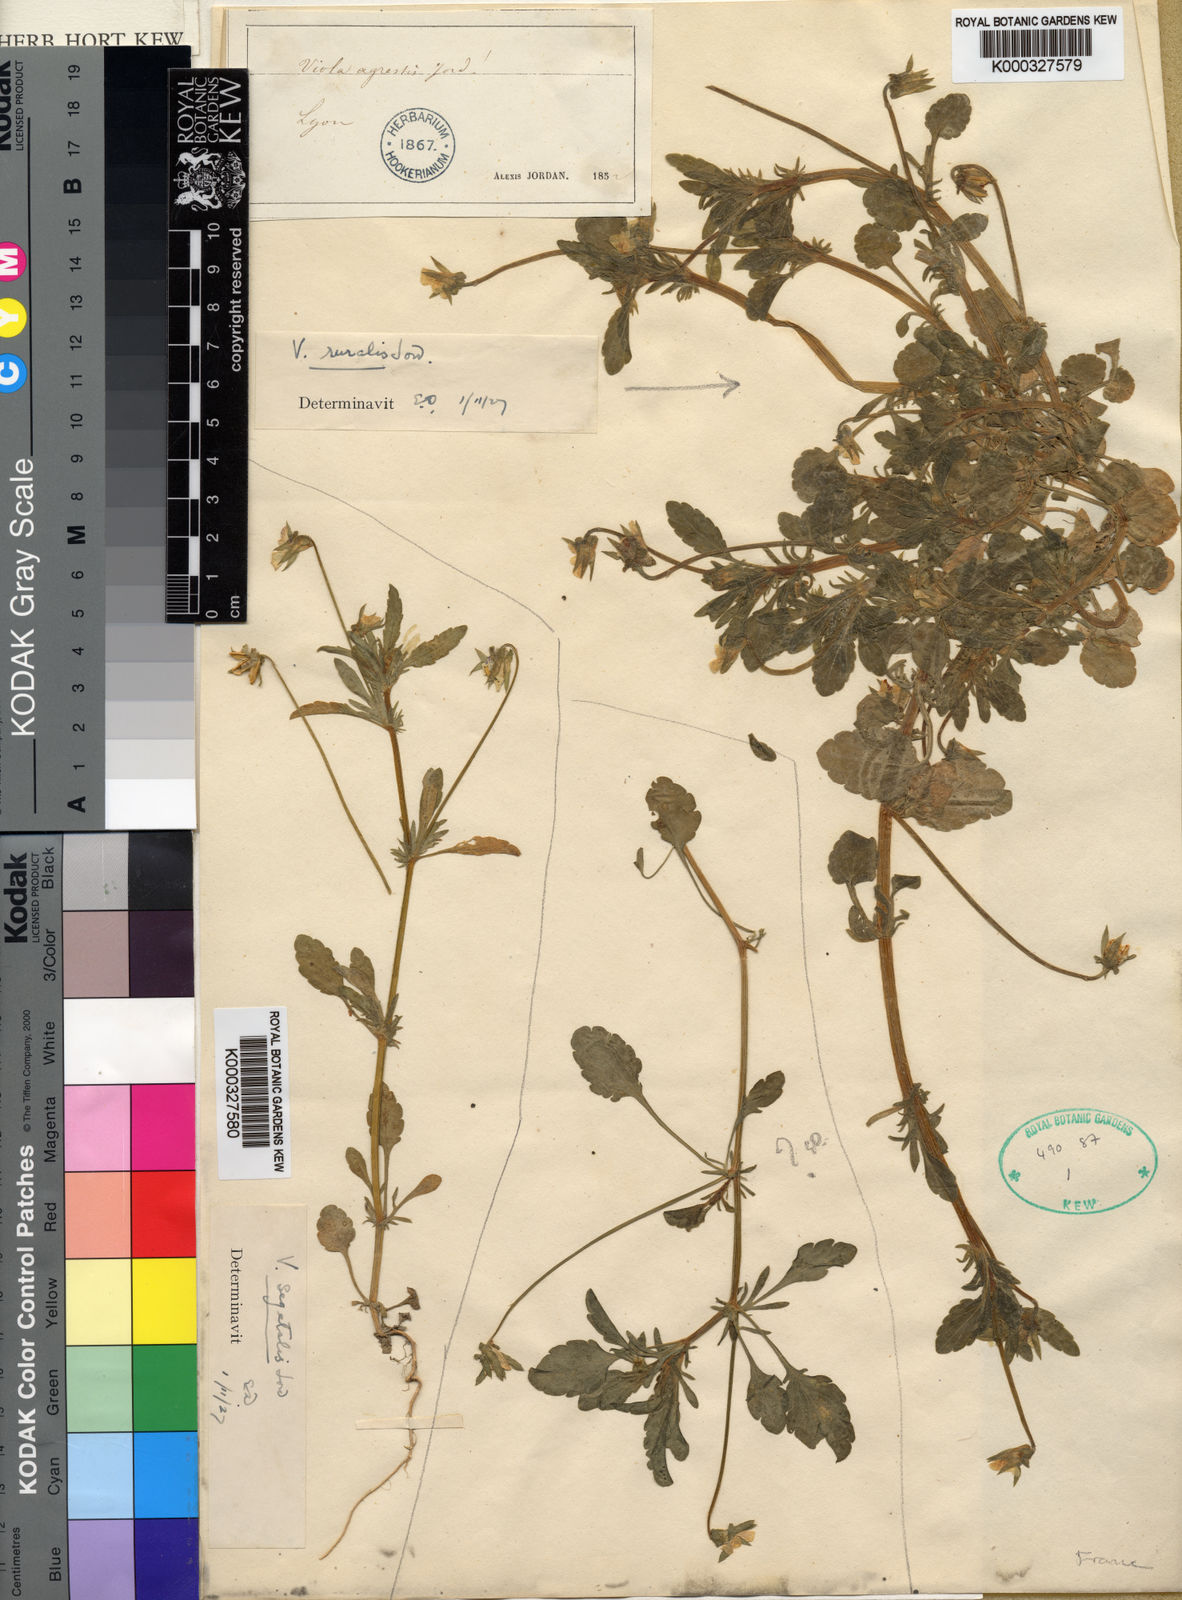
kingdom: Plantae
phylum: Tracheophyta
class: Magnoliopsida
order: Malpighiales
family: Violaceae
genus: Viola
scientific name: Viola arvensis
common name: Field pansy
